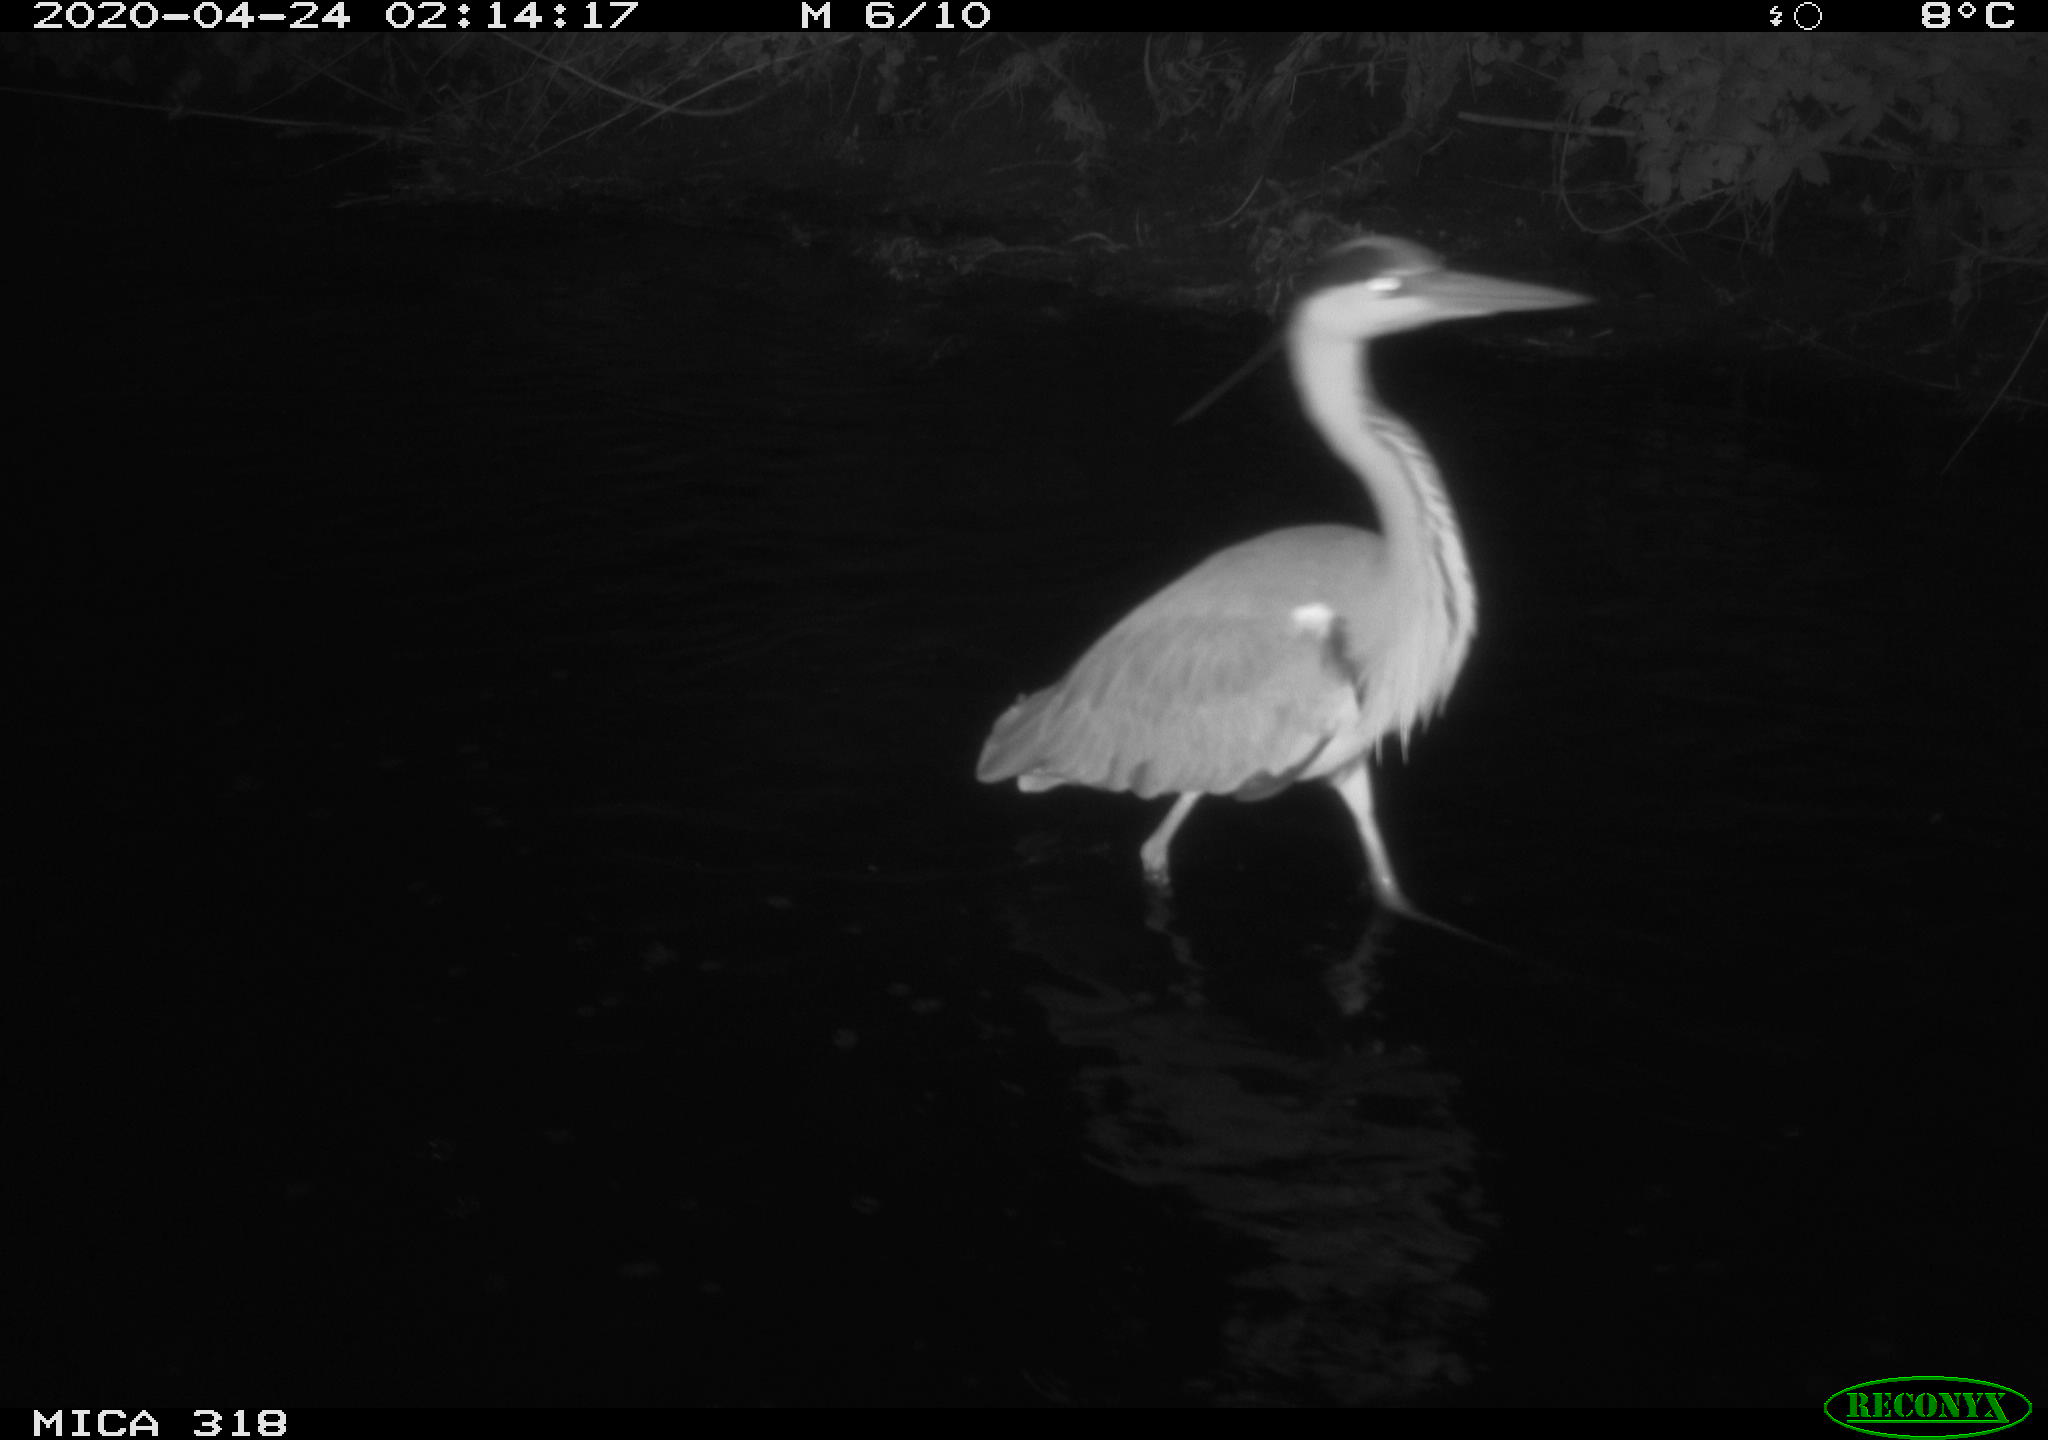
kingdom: Animalia
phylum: Chordata
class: Aves
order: Pelecaniformes
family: Ardeidae
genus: Ardea
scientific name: Ardea cinerea
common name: Grey heron
